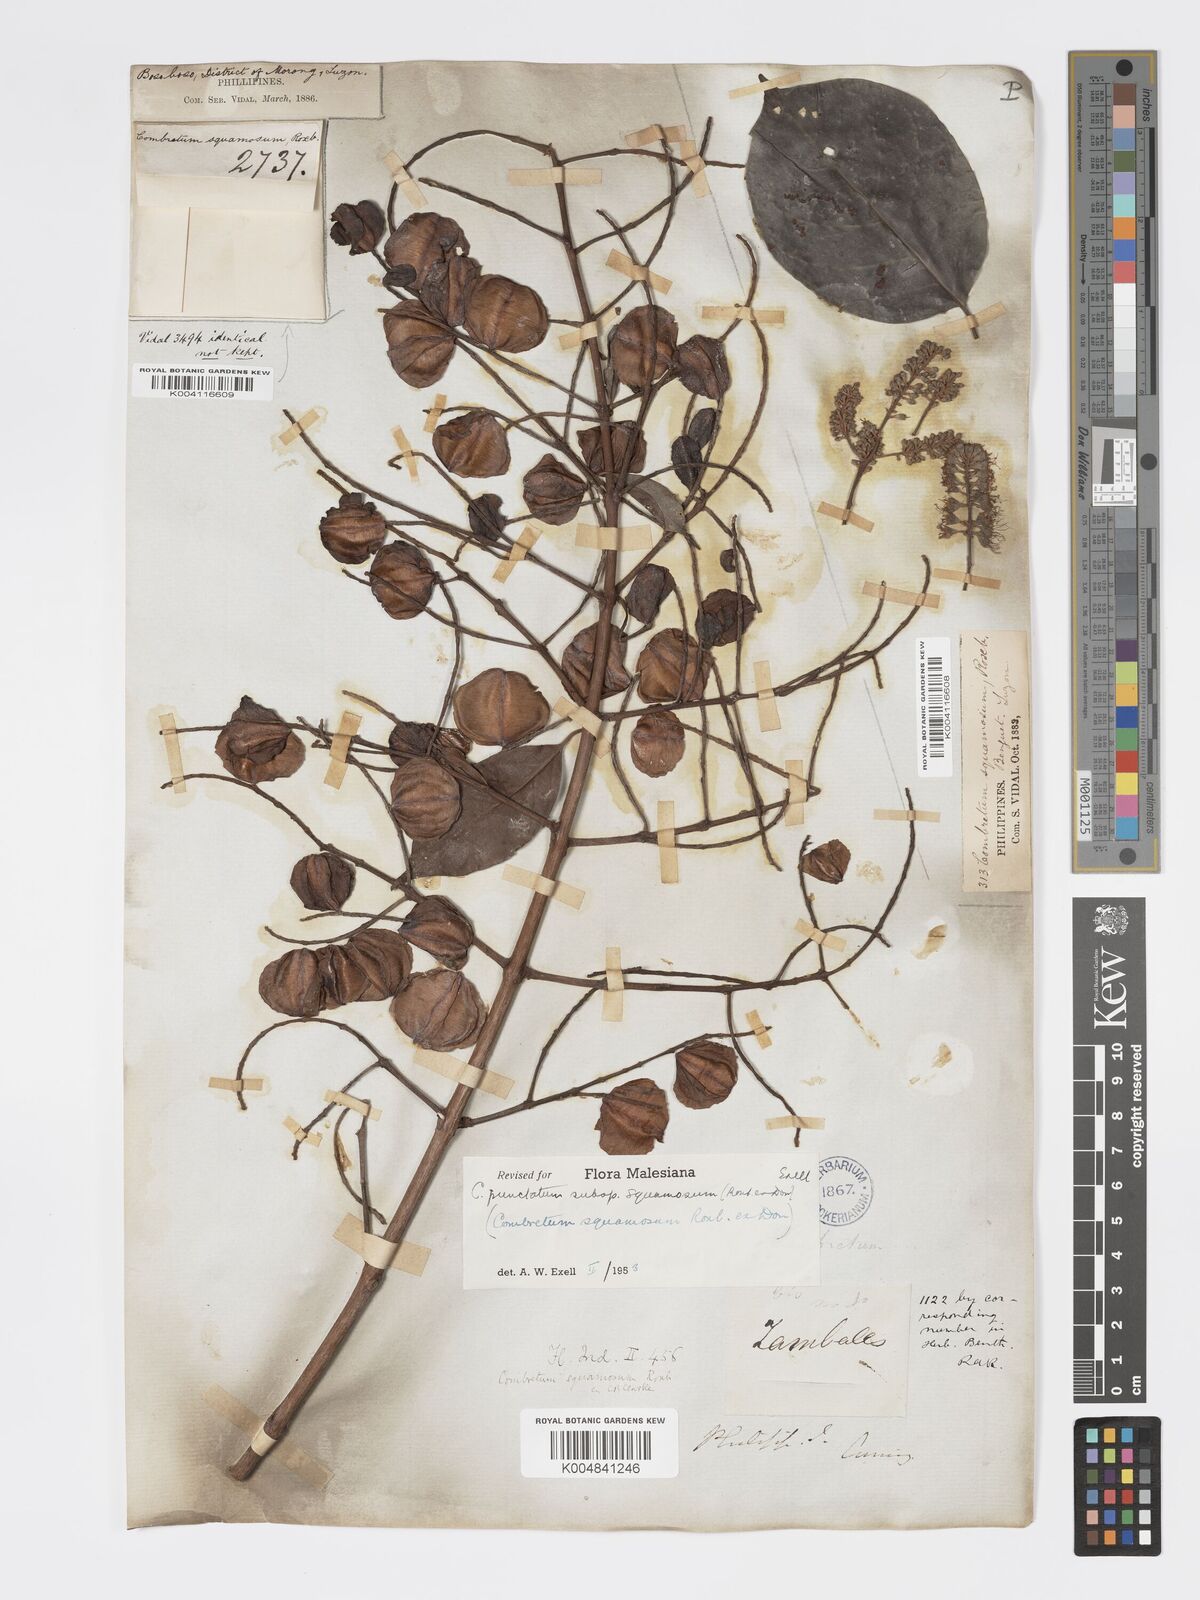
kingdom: Plantae
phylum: Tracheophyta
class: Magnoliopsida
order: Myrtales
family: Combretaceae
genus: Combretum
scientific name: Combretum
